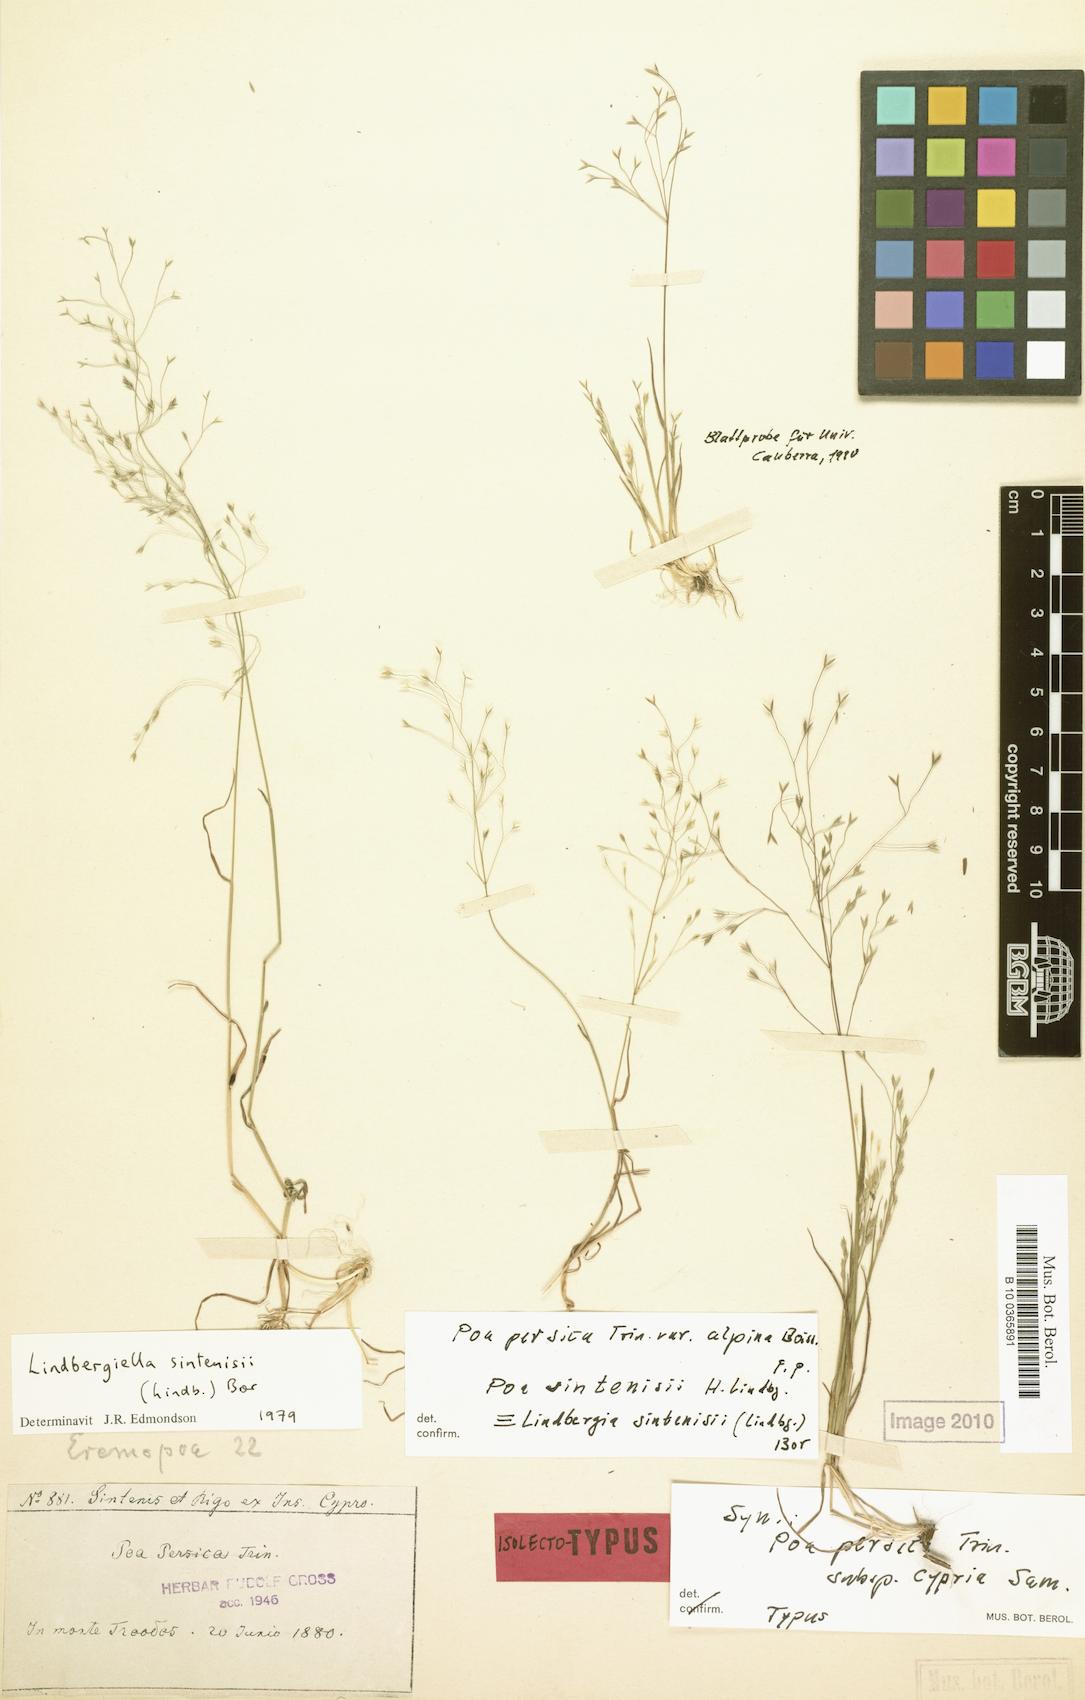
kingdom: Plantae
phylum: Tracheophyta
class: Liliopsida
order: Poales
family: Poaceae
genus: Poa
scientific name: Poa sintenisii
